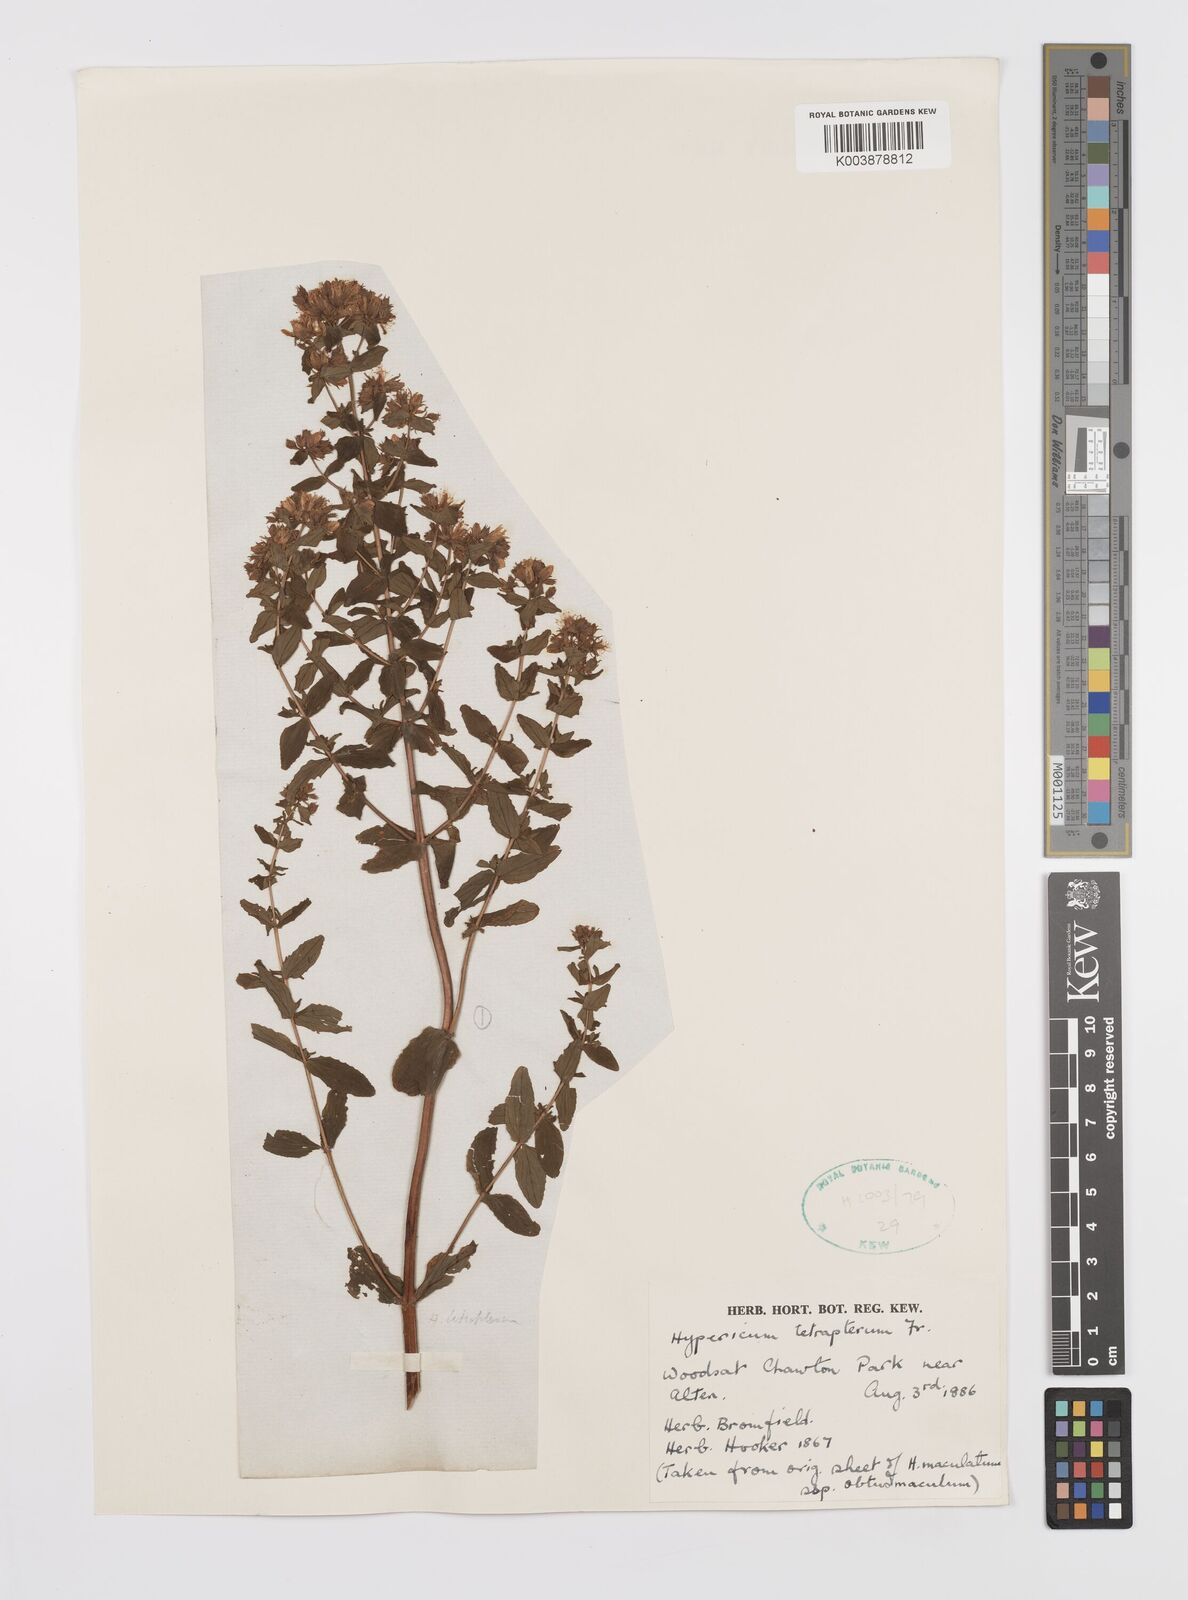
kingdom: Plantae
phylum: Tracheophyta
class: Magnoliopsida
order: Malpighiales
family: Hypericaceae
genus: Hypericum
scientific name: Hypericum tetrapterum
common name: Square-stalked st. john's-wort
